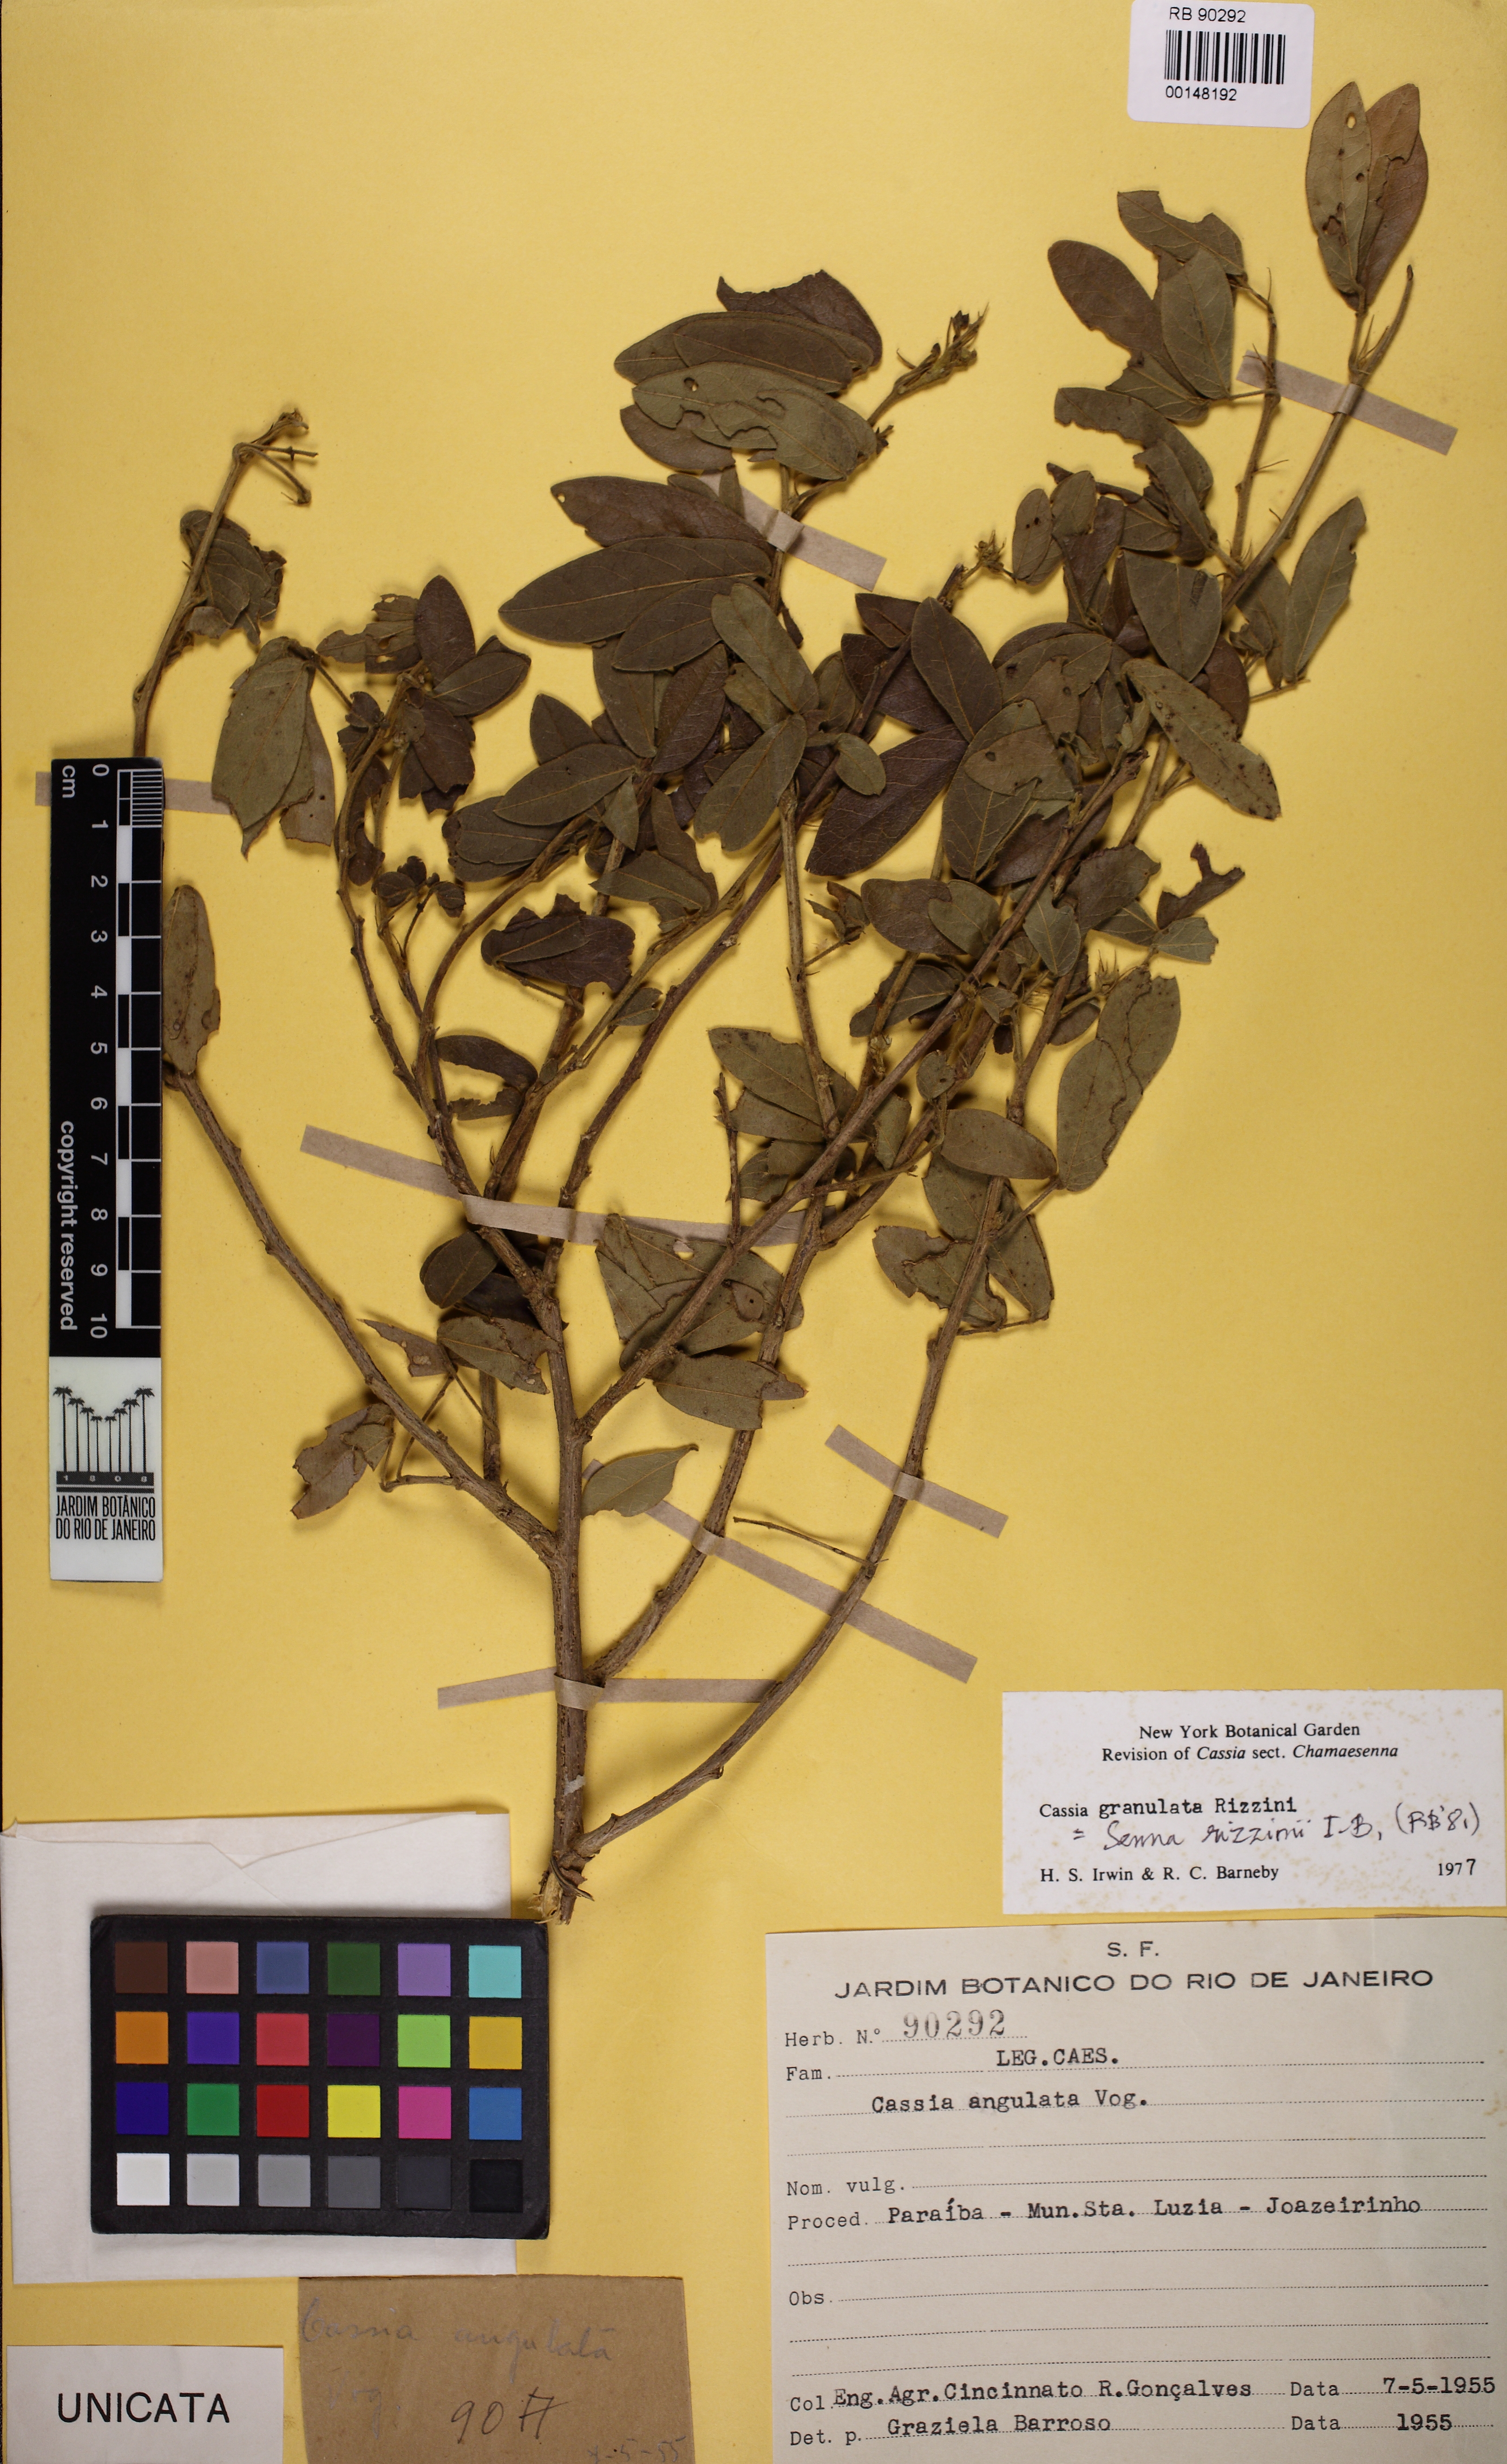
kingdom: Plantae
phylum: Tracheophyta
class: Magnoliopsida
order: Fabales
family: Fabaceae
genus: Senna
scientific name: Senna rizzinii
